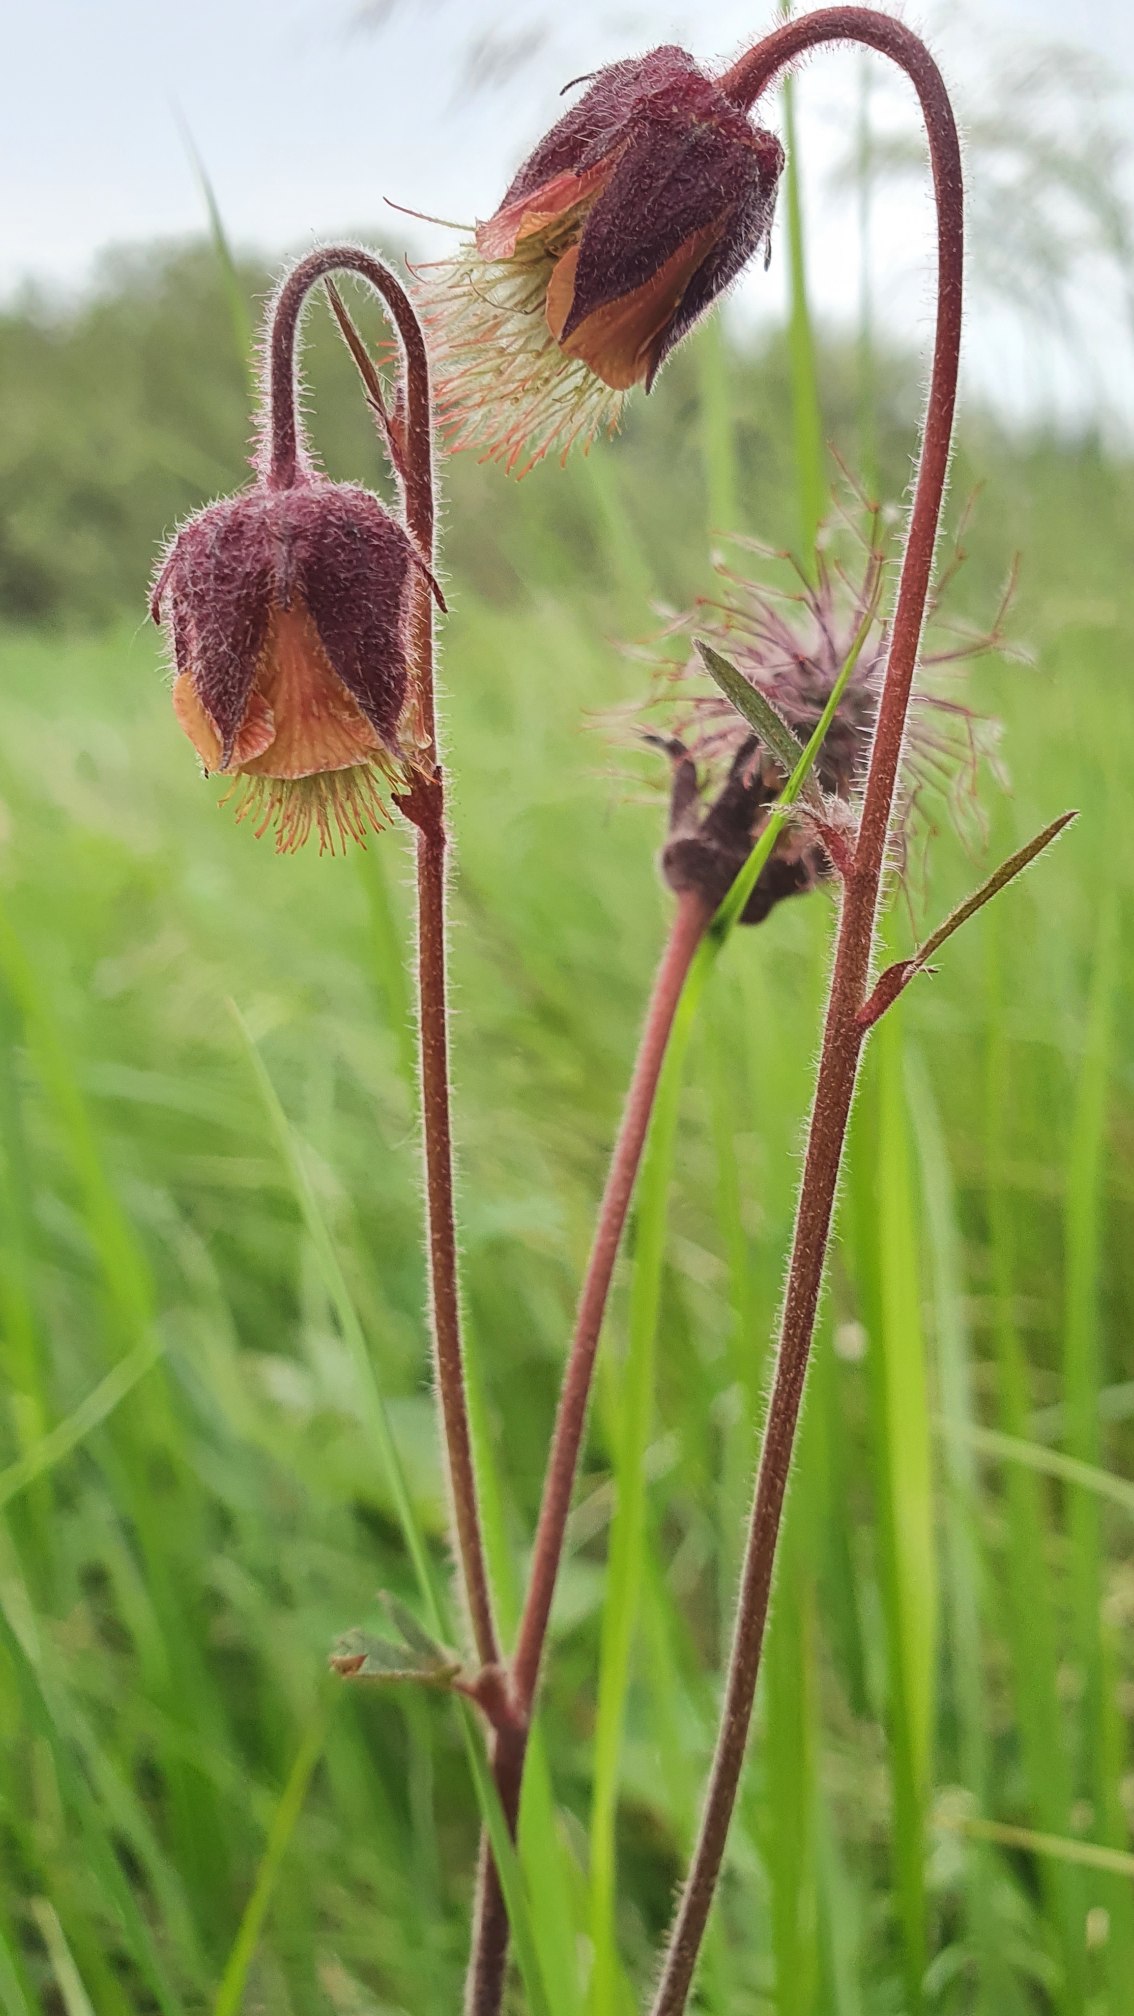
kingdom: Plantae
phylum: Tracheophyta
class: Magnoliopsida
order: Rosales
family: Rosaceae
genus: Geum
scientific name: Geum rivale
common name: Eng-nellikerod
